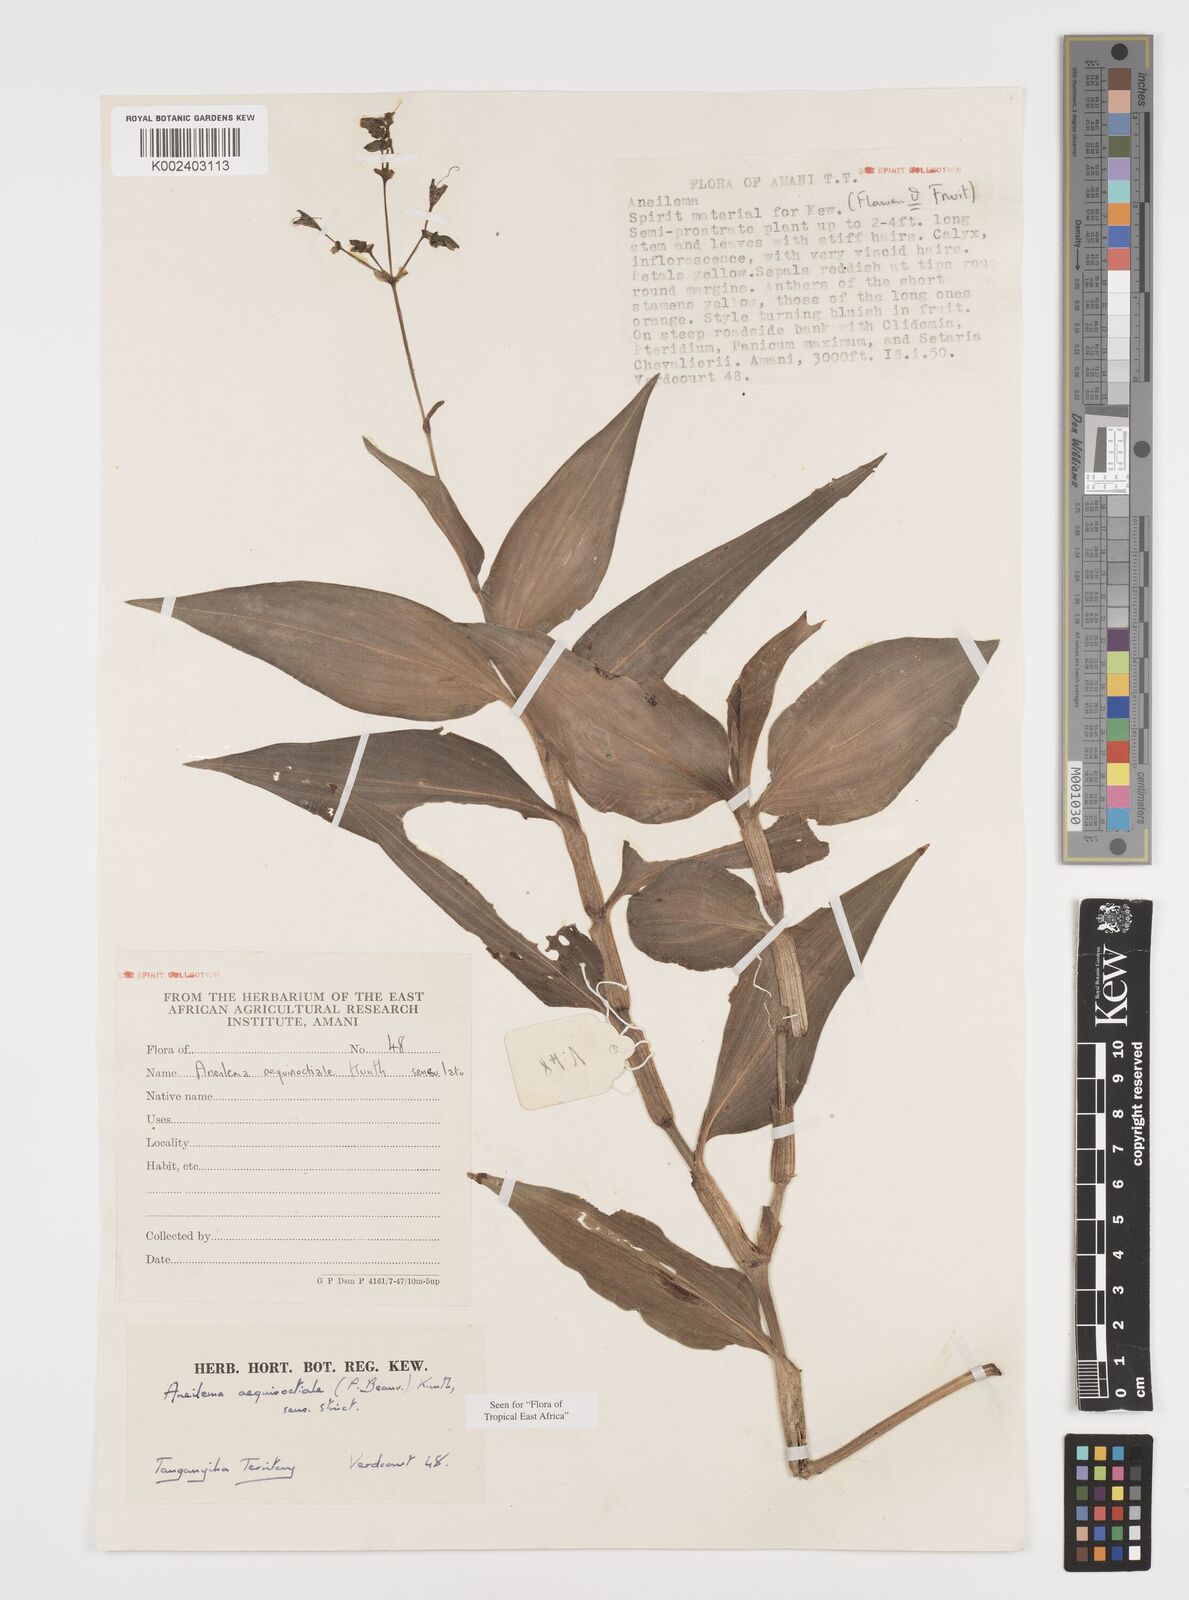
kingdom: Plantae
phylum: Tracheophyta
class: Liliopsida
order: Commelinales
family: Commelinaceae
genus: Aneilema
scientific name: Aneilema aequinoctiale
